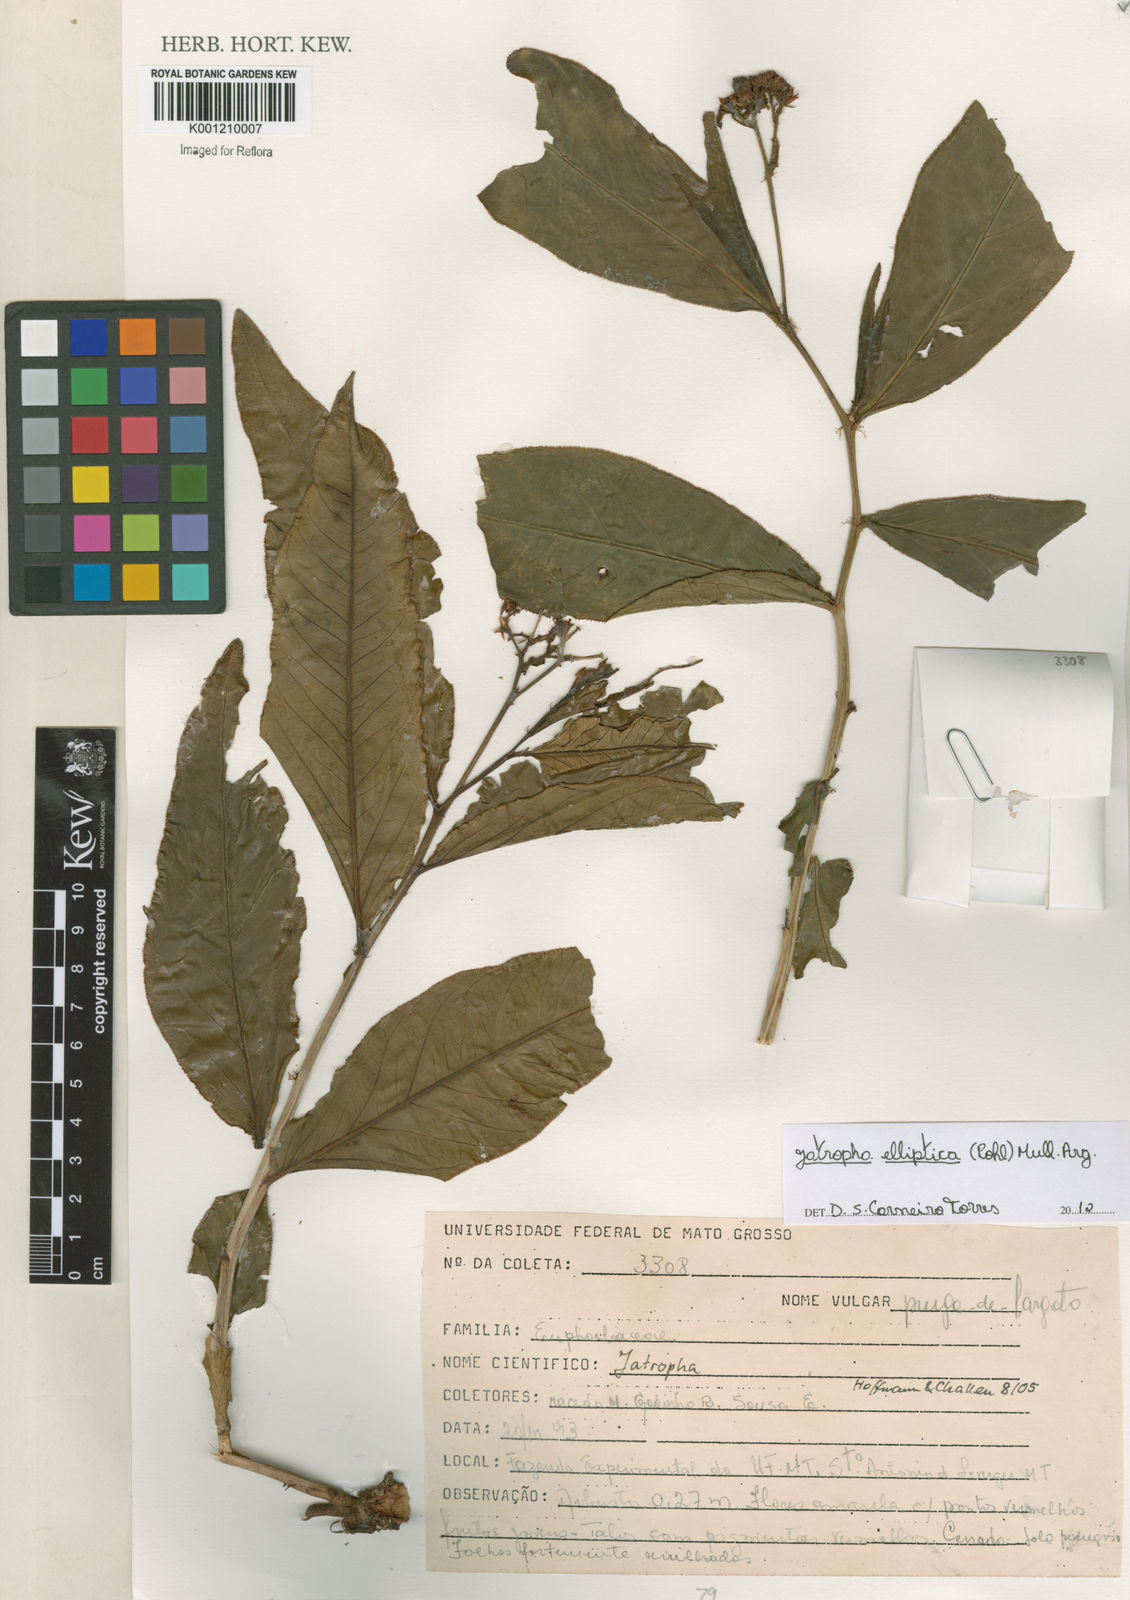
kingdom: Plantae
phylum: Tracheophyta
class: Magnoliopsida
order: Malpighiales
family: Euphorbiaceae
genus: Jatropha
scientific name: Jatropha elliptica
